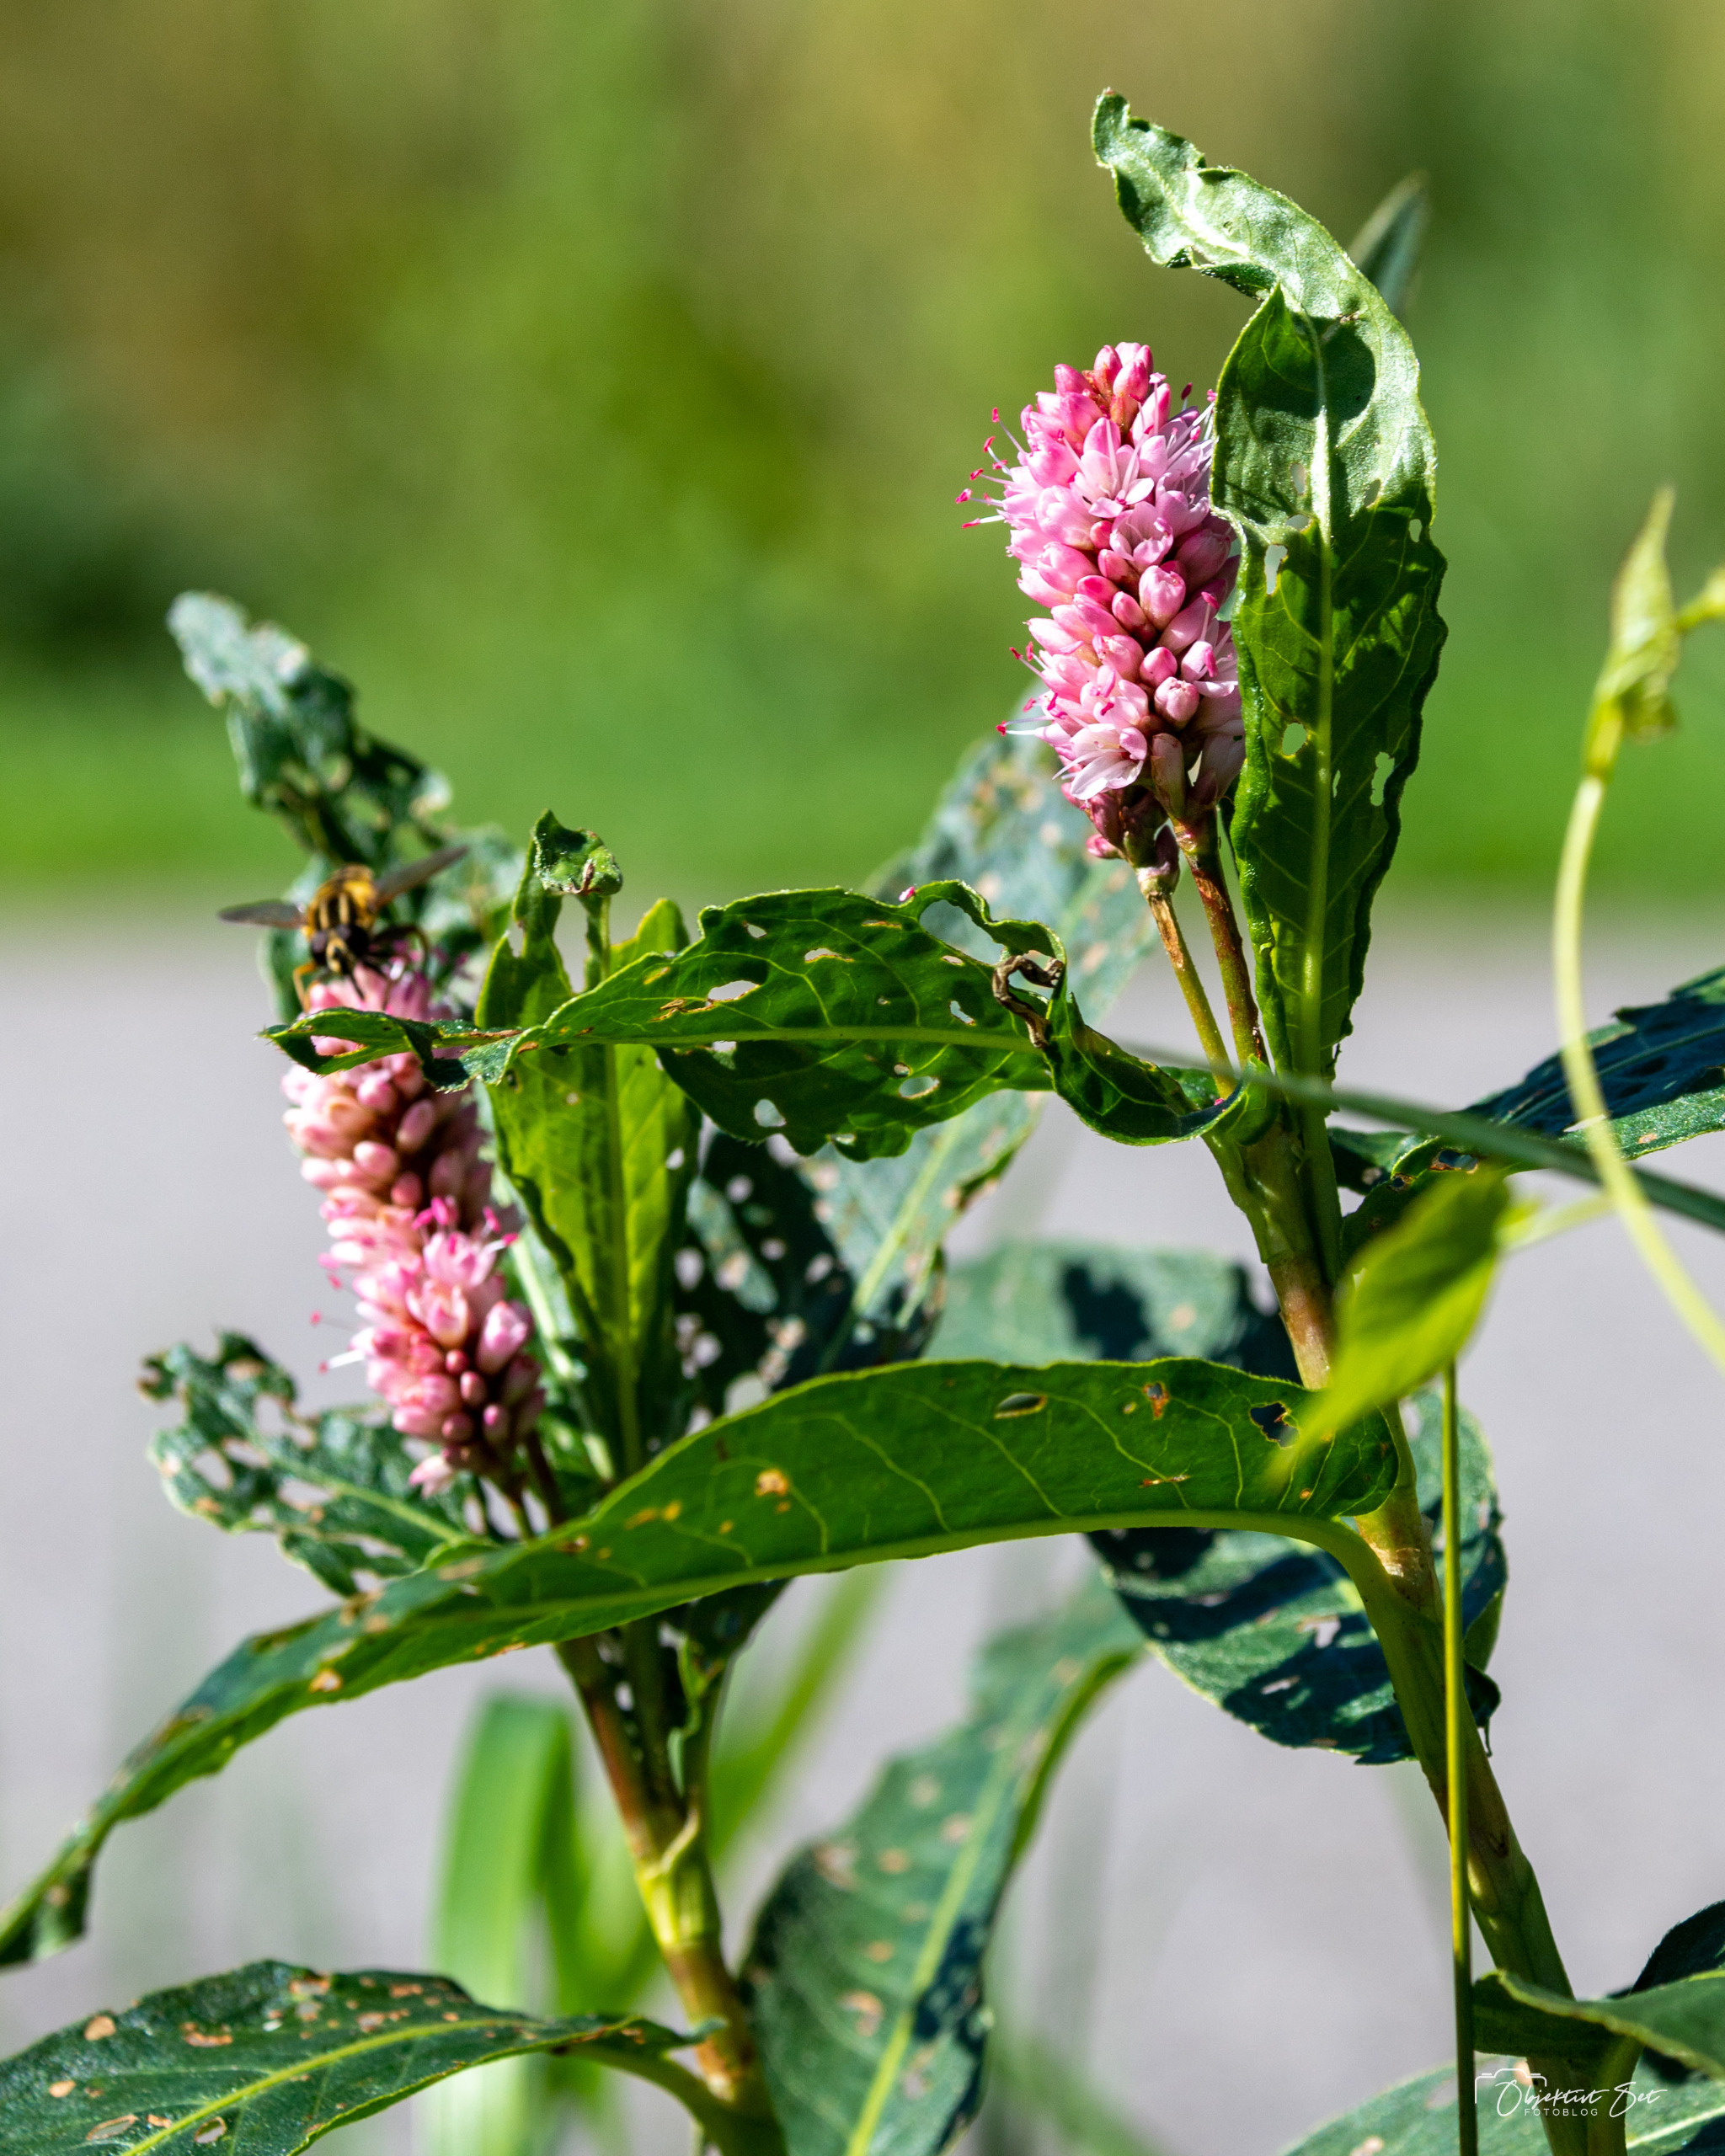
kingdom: Plantae
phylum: Tracheophyta
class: Magnoliopsida
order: Caryophyllales
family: Polygonaceae
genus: Persicaria
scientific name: Persicaria amphibia
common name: Vand-pileurt
